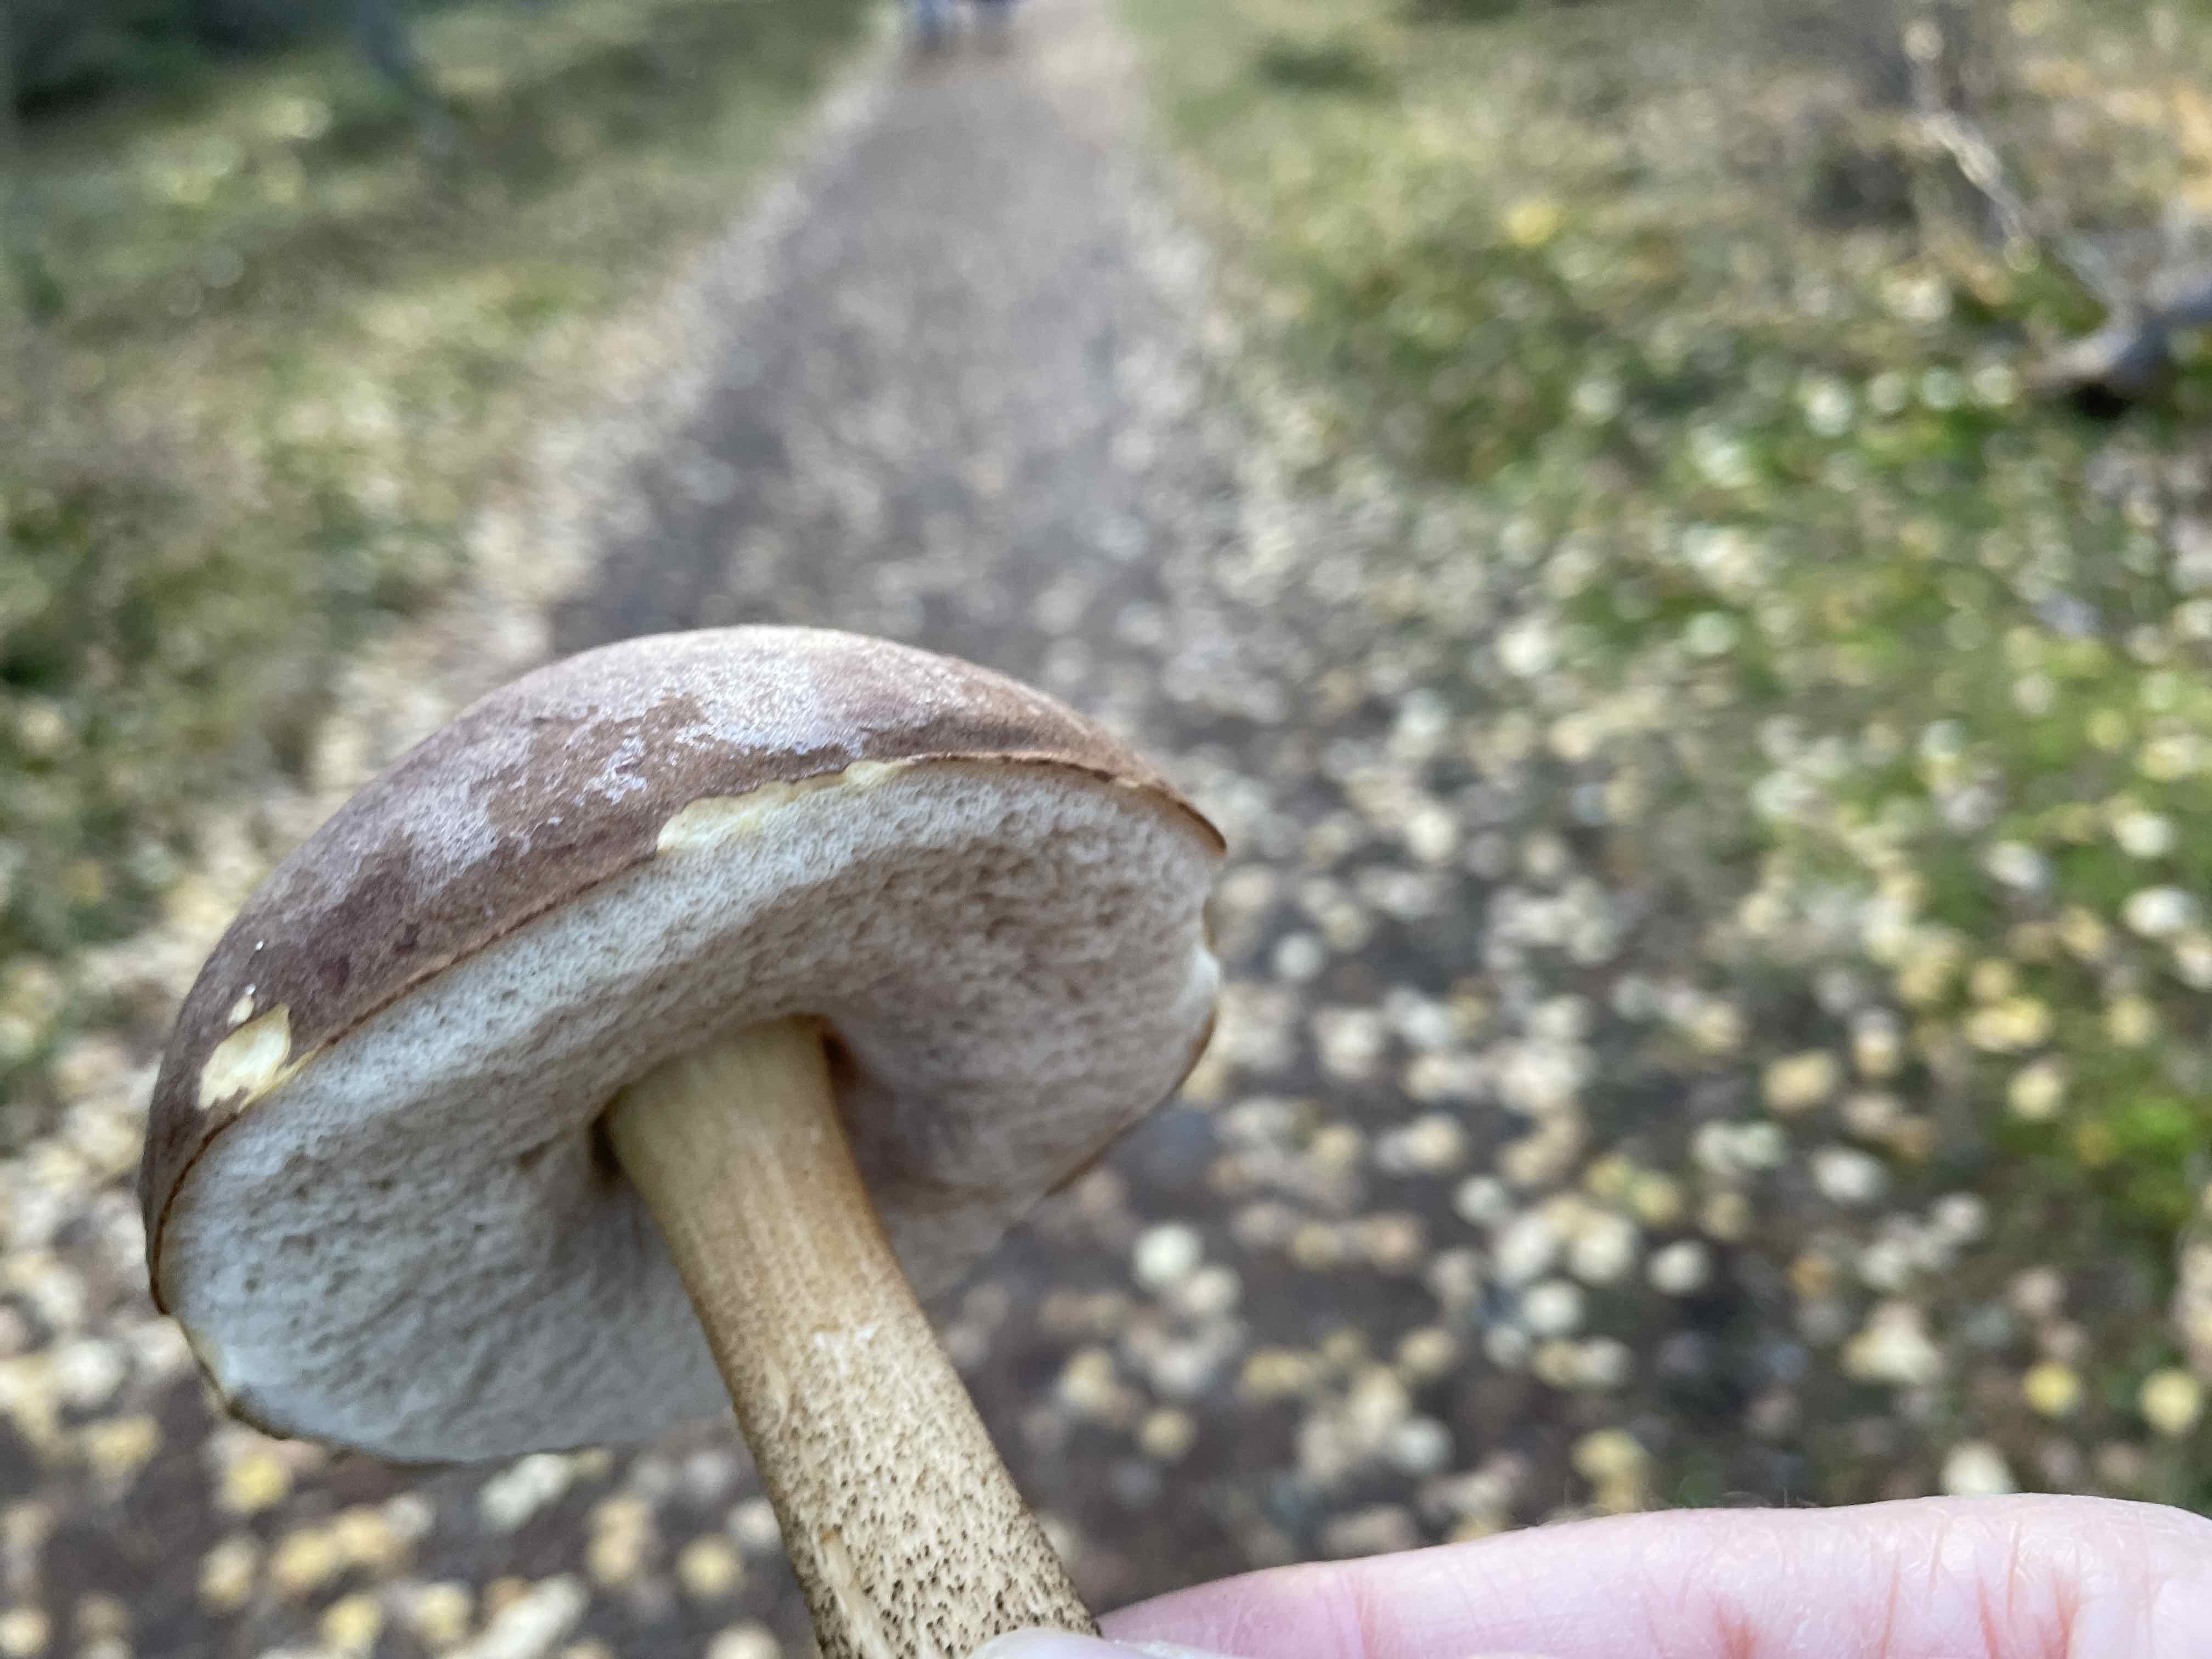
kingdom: Fungi
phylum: Basidiomycota
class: Agaricomycetes
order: Boletales
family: Boletaceae
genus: Leccinum
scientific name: Leccinum scabrum
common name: brun skælrørhat
